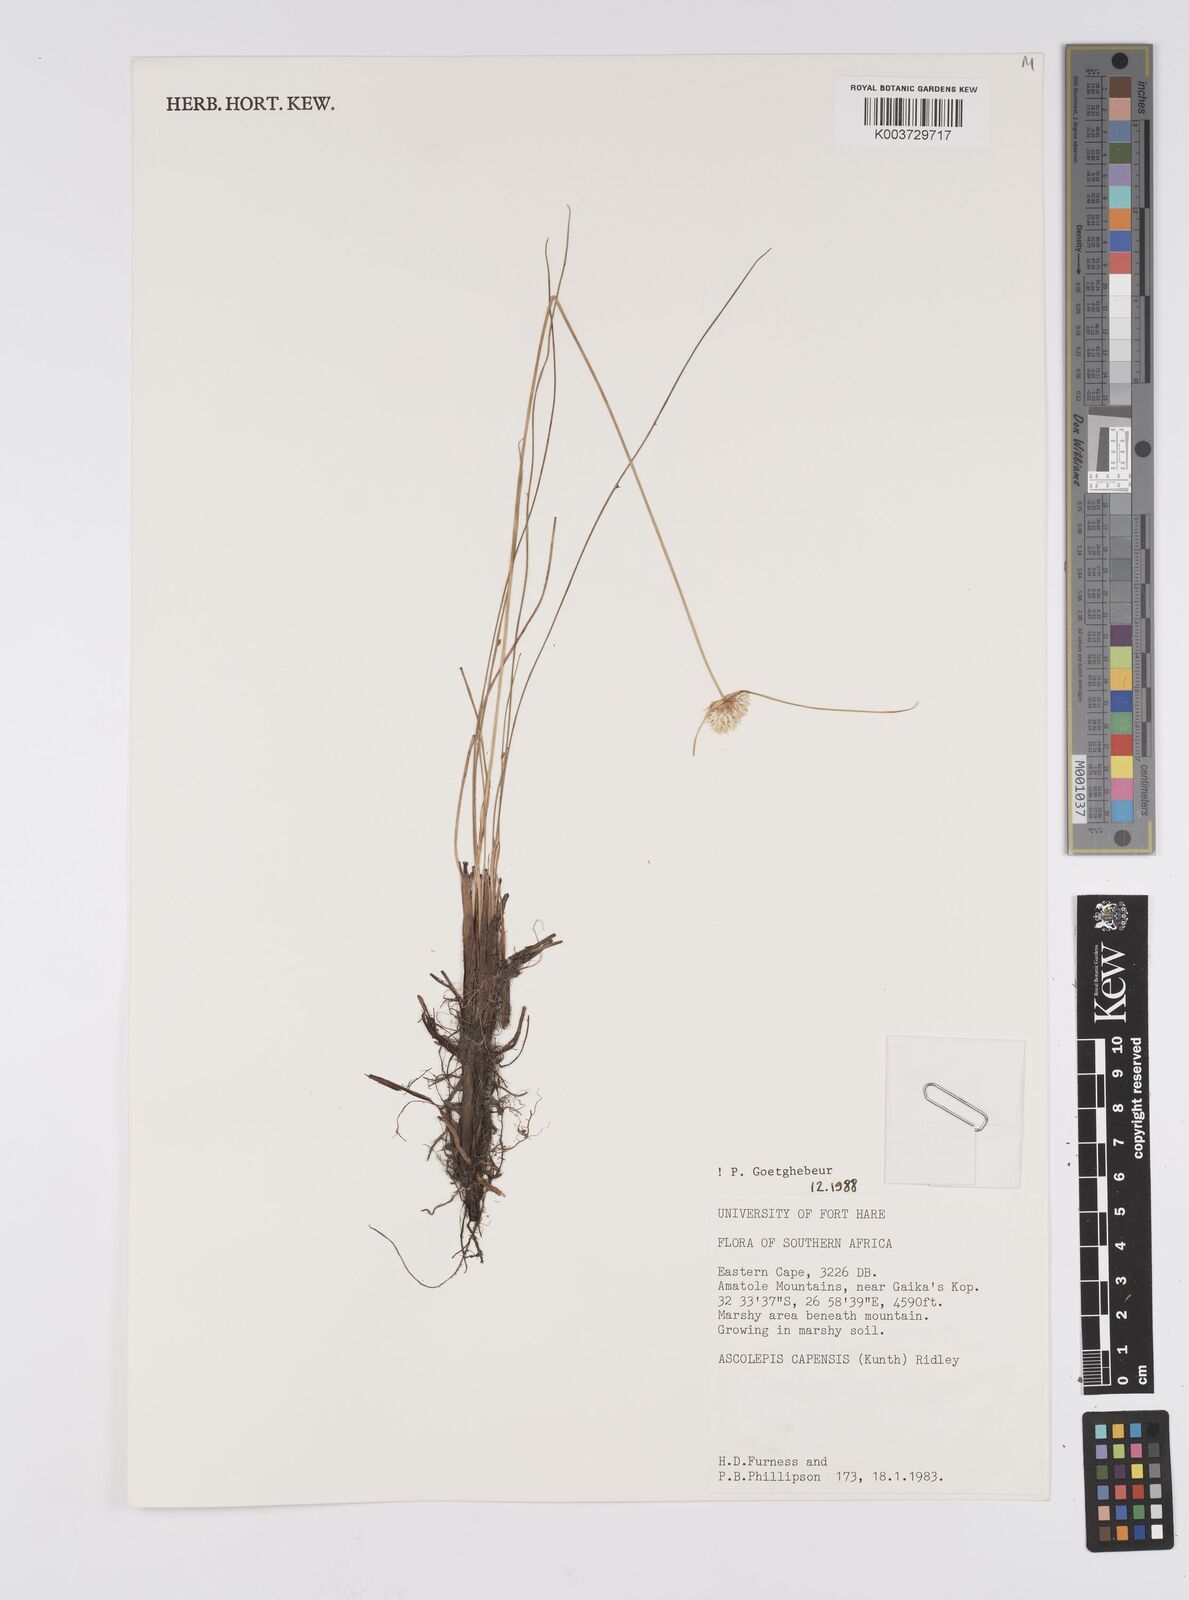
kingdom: Plantae
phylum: Tracheophyta
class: Liliopsida
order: Poales
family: Cyperaceae
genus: Cyperus
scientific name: Cyperus capensis
